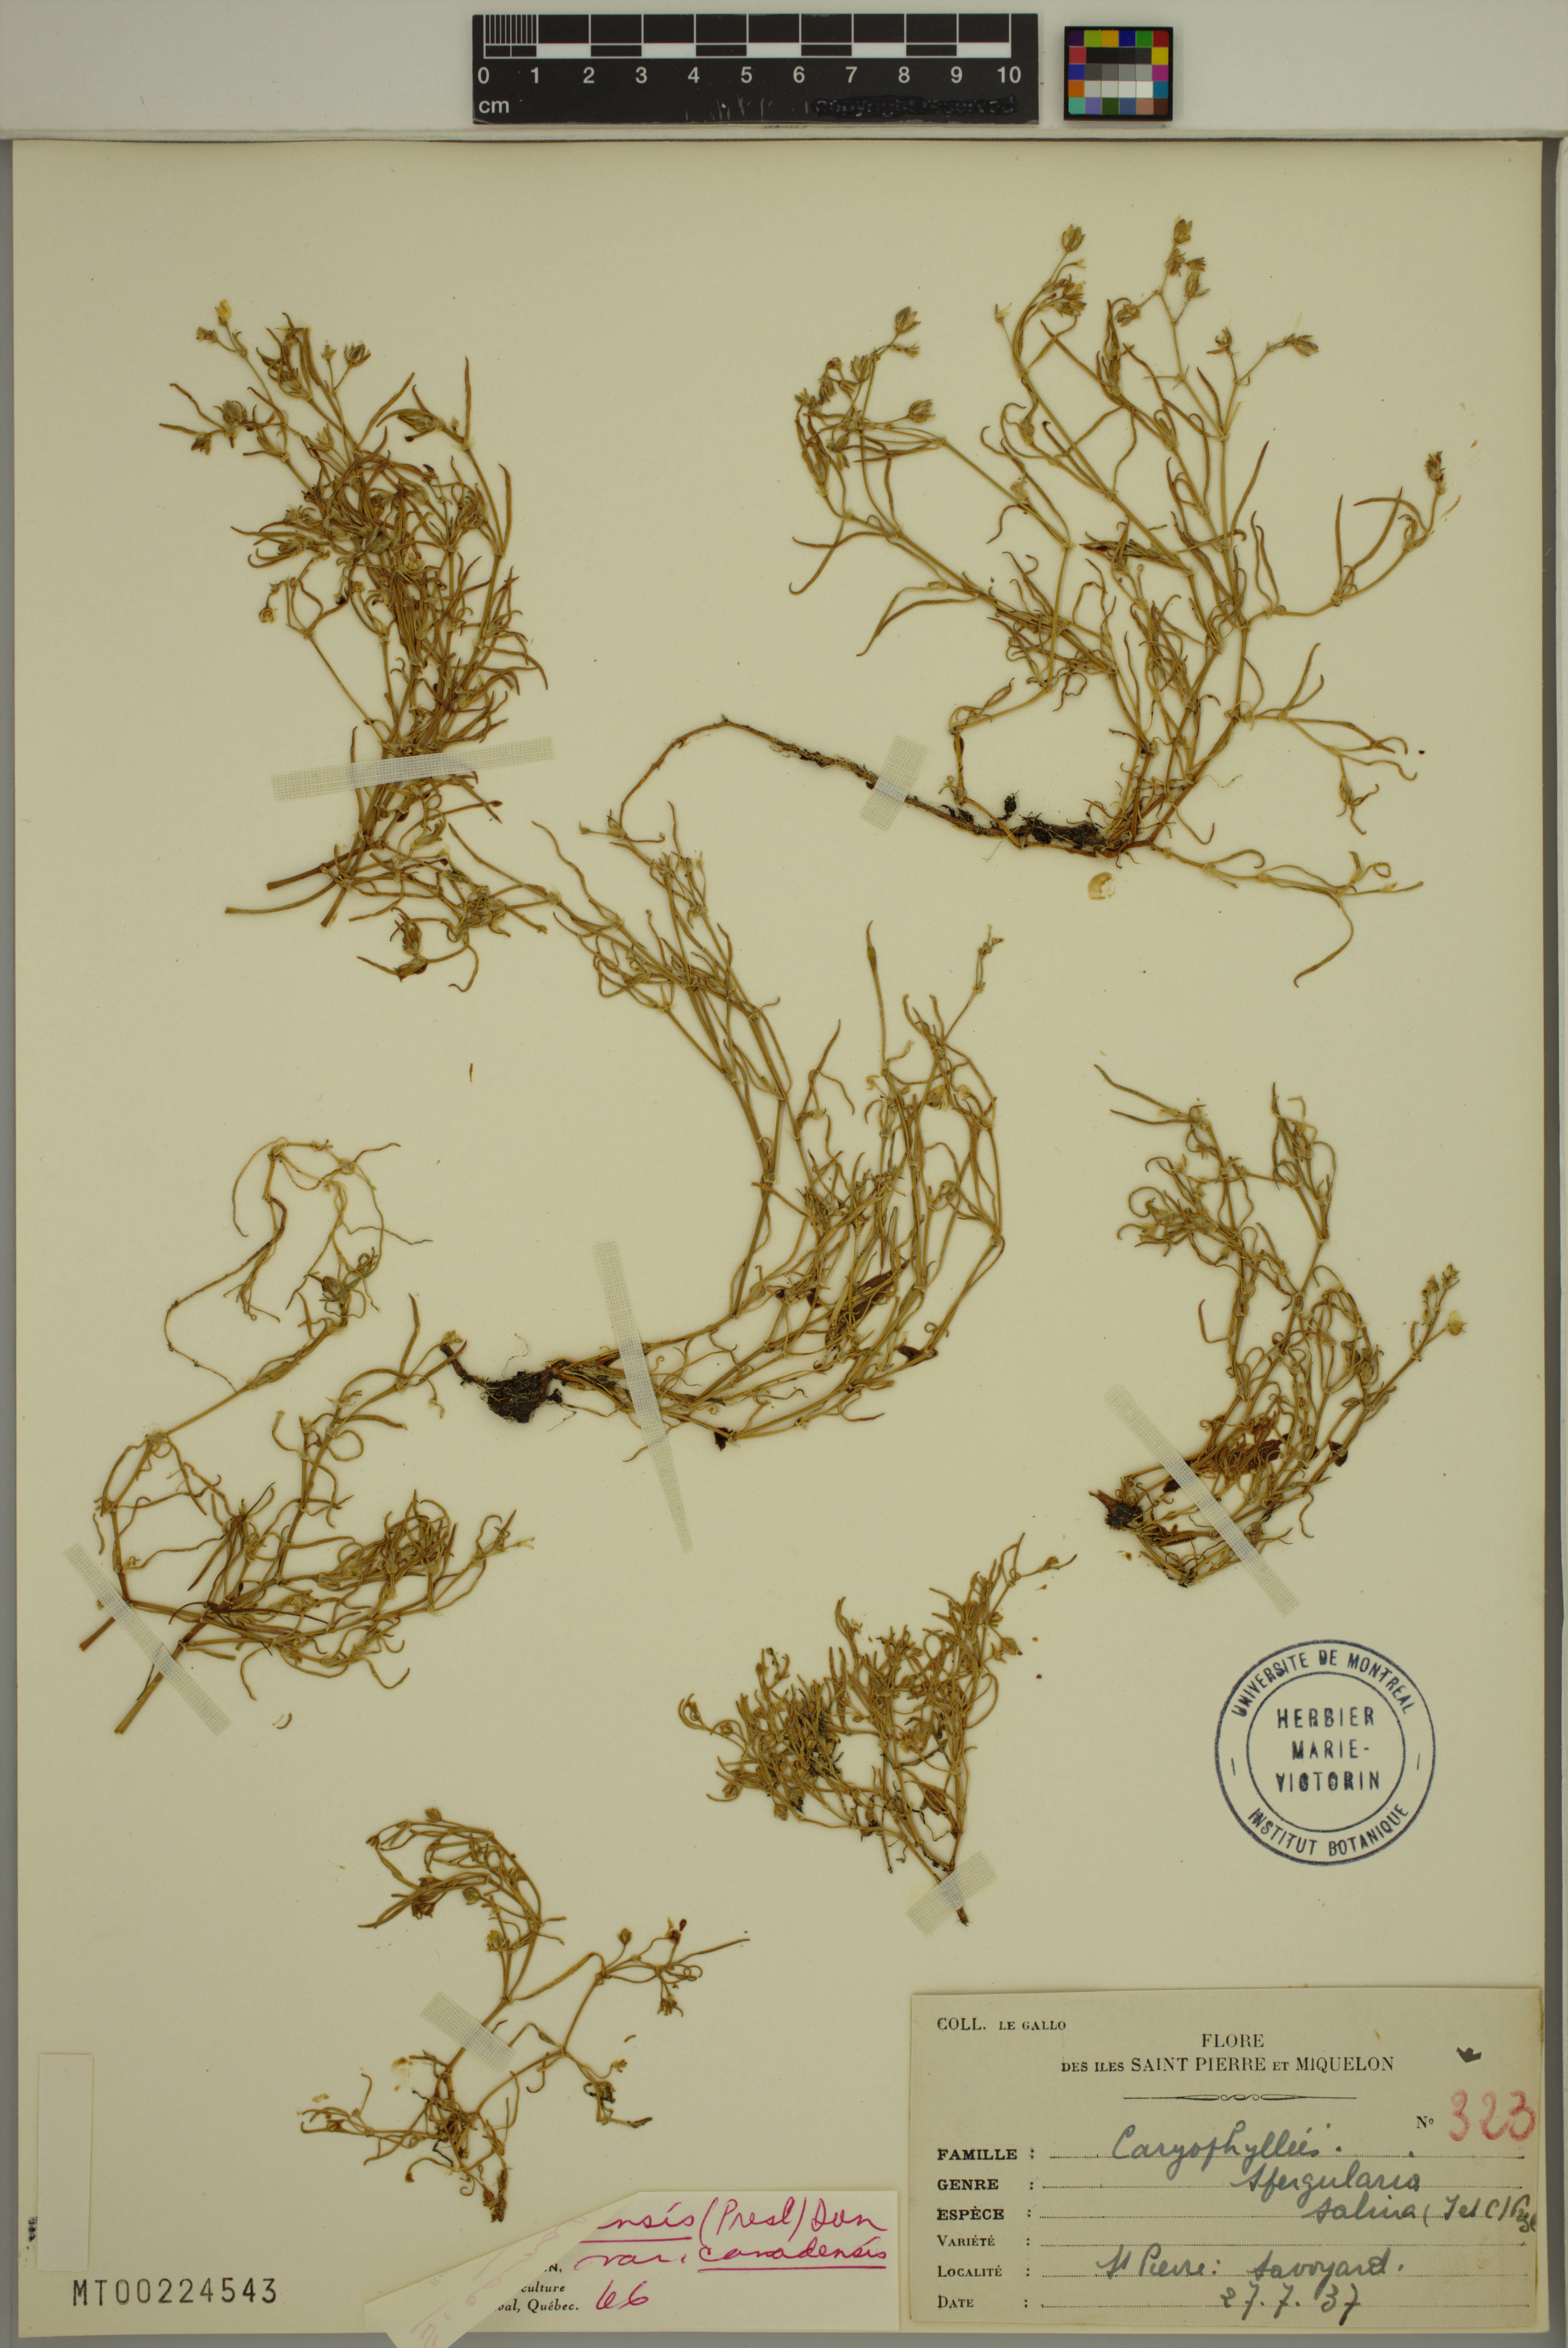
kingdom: Plantae
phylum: Tracheophyta
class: Magnoliopsida
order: Caryophyllales
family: Caryophyllaceae
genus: Spergularia
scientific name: Spergularia canadensis
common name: Canada sand-spurrey
